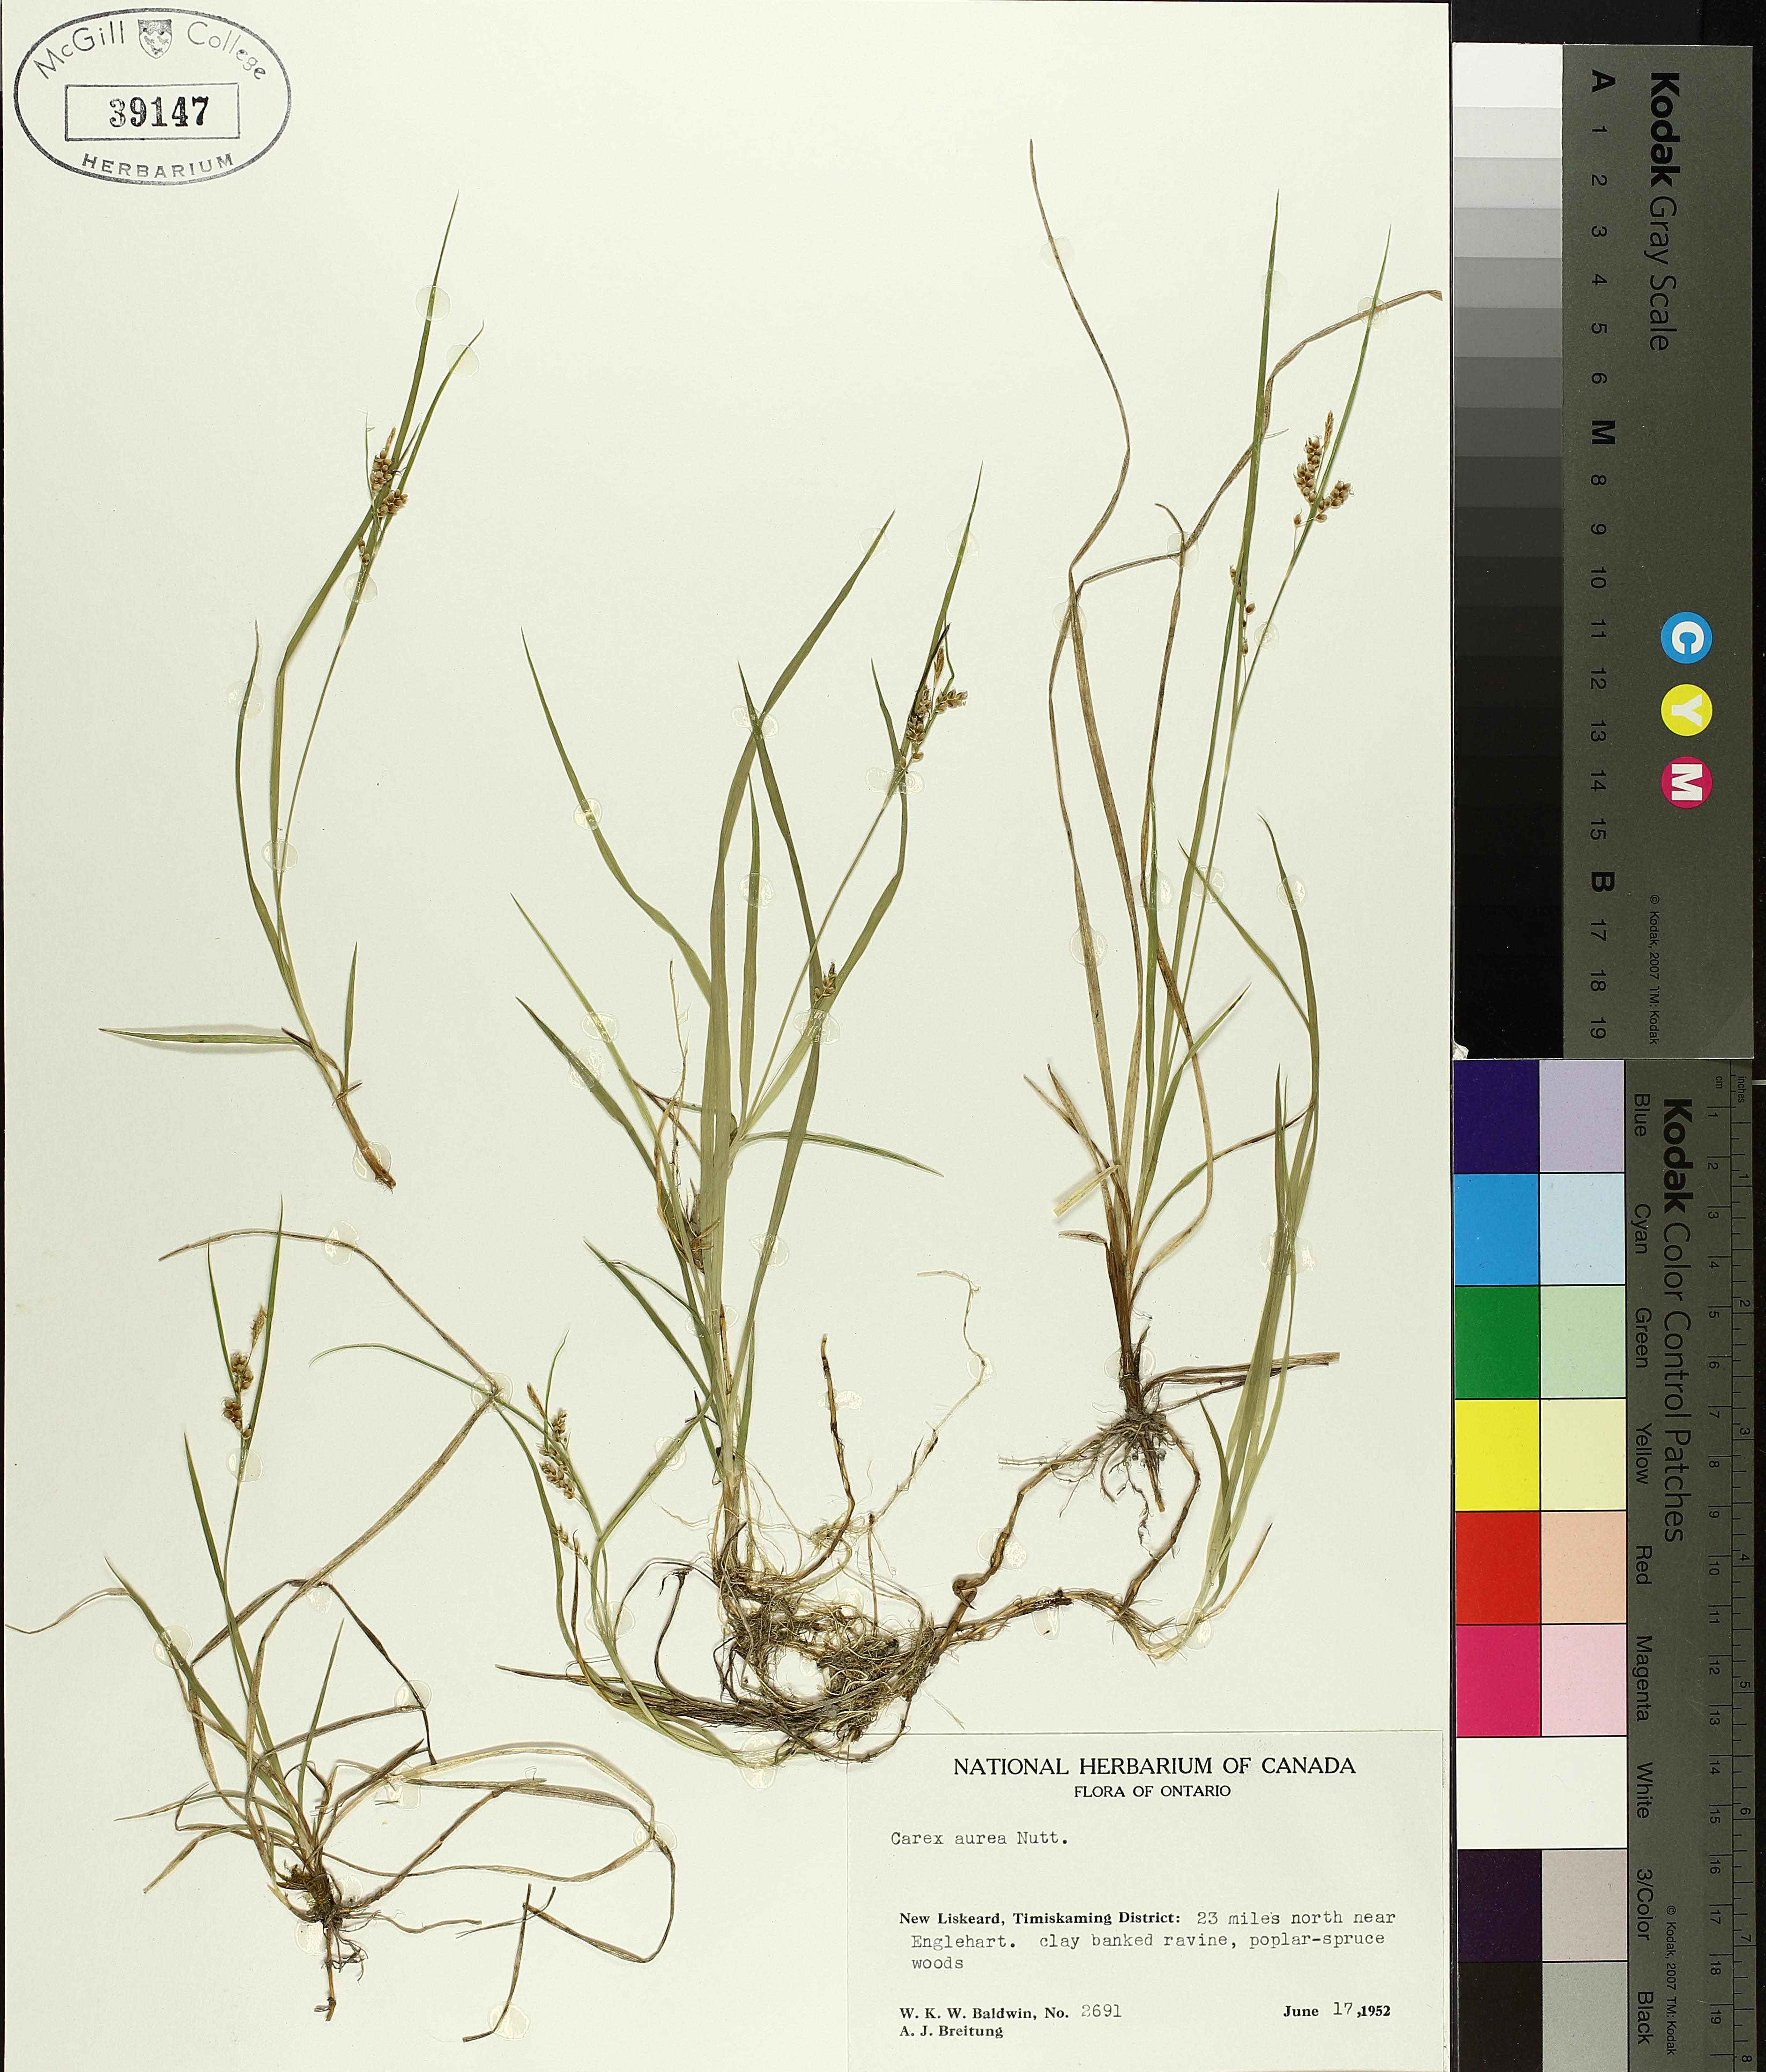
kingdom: Plantae
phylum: Tracheophyta
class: Liliopsida
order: Poales
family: Cyperaceae
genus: Carex
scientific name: Carex aurea
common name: Golden sedge
